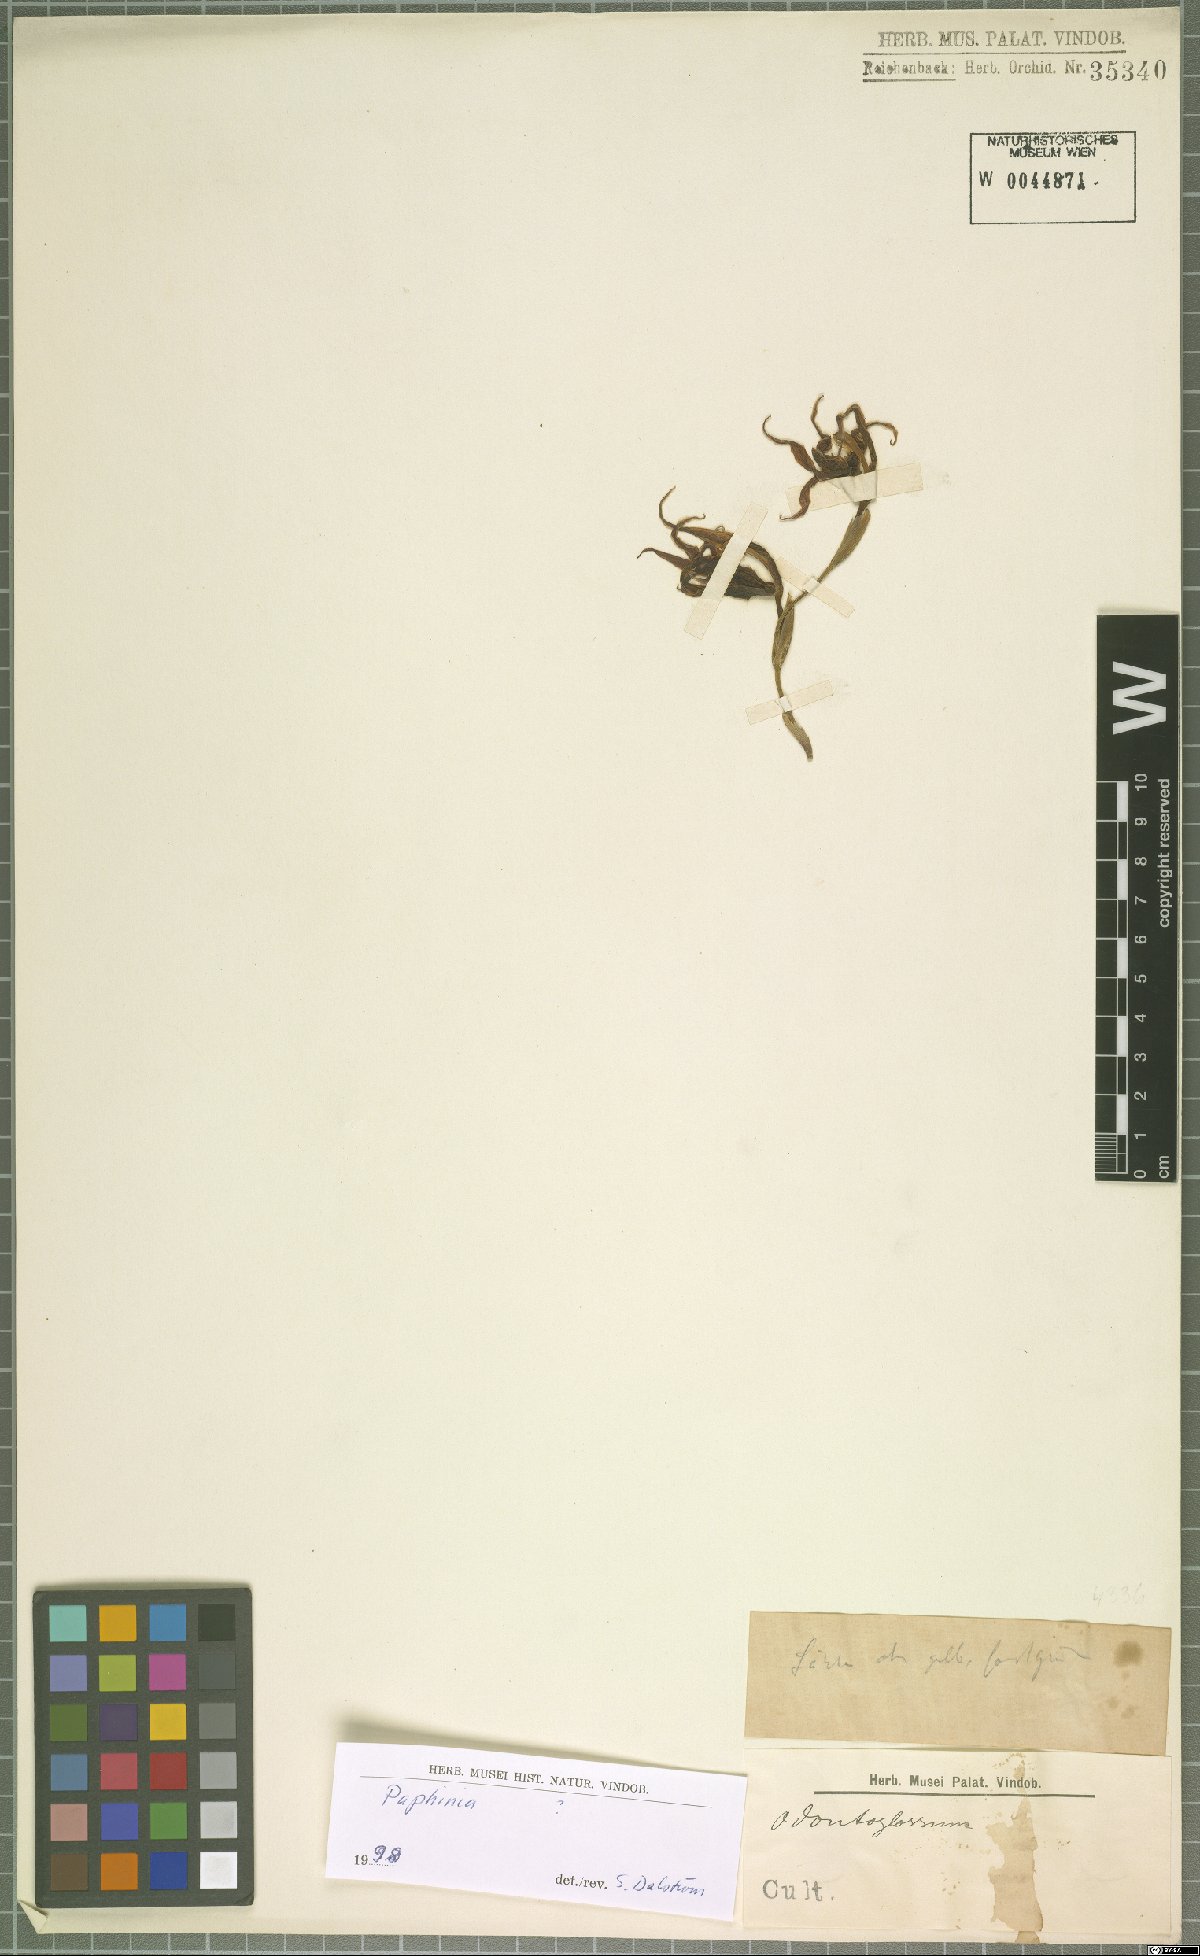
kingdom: Plantae
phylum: Tracheophyta
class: Liliopsida
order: Asparagales
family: Orchidaceae
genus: Paphinia
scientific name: Paphinia
